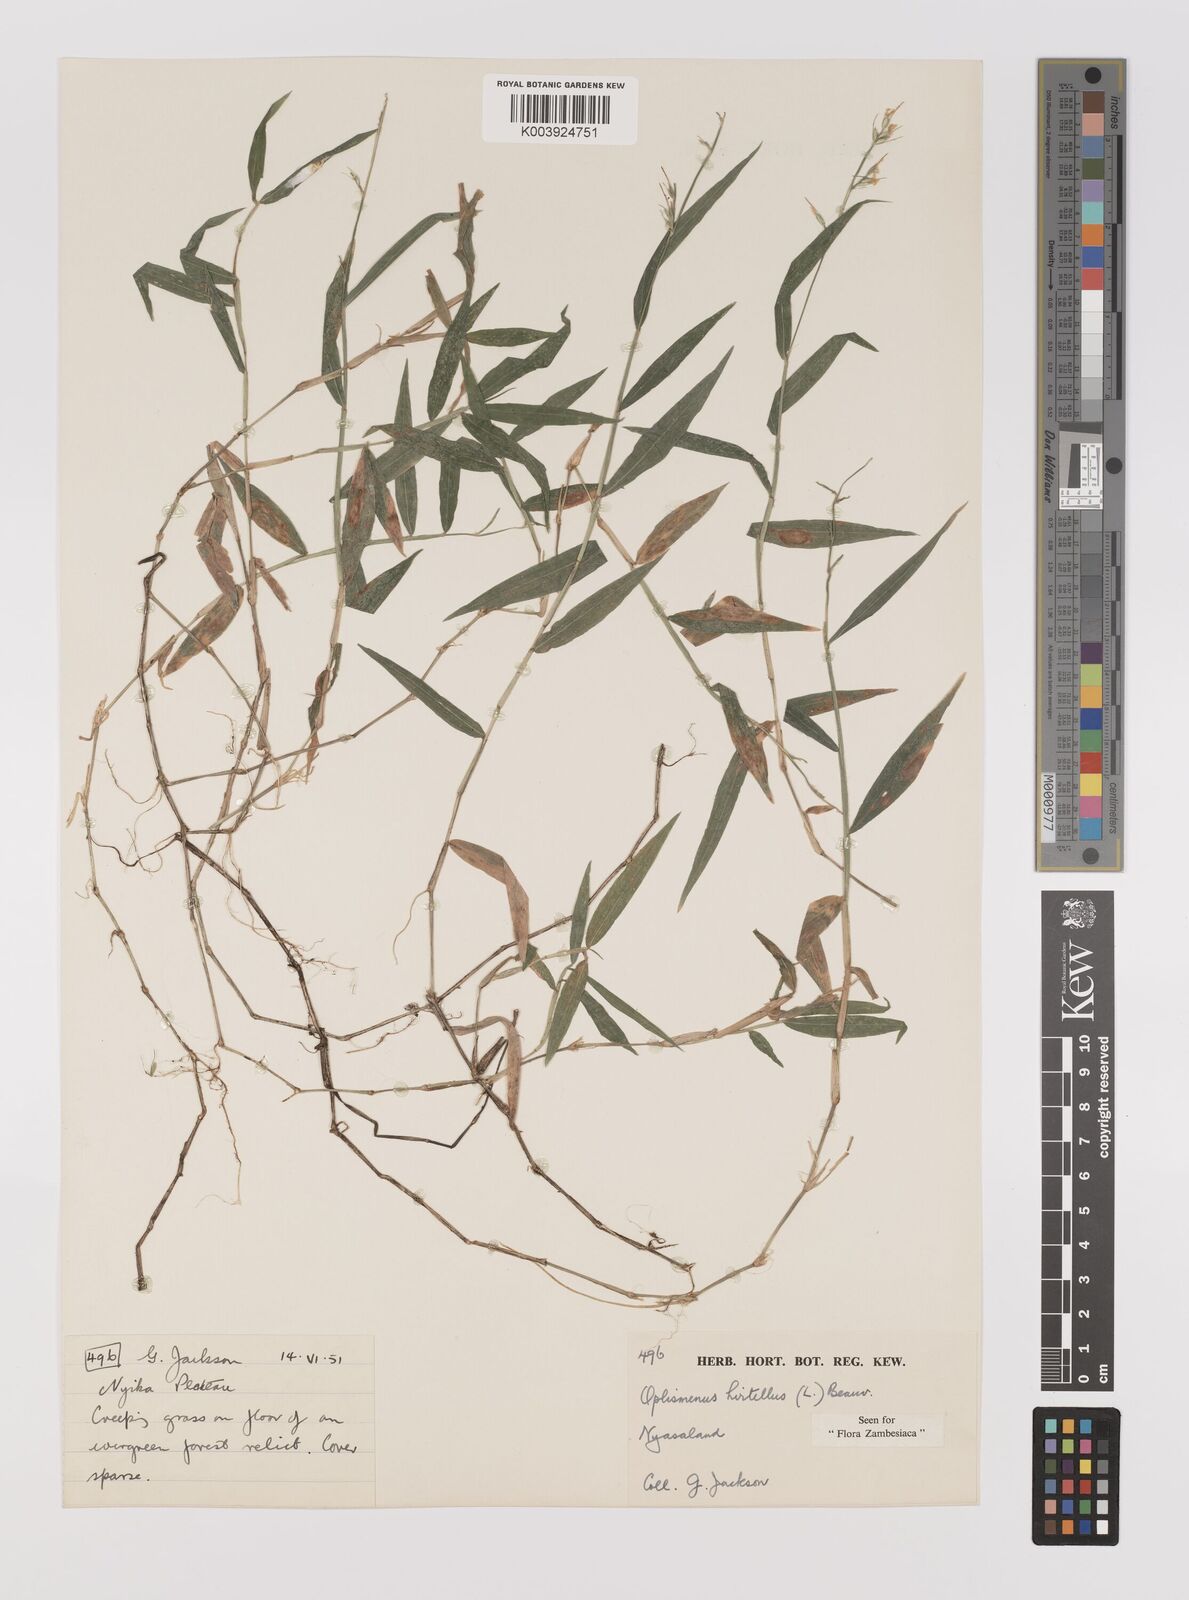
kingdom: Plantae
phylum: Tracheophyta
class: Liliopsida
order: Poales
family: Poaceae
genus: Oplismenus
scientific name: Oplismenus hirtellus
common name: Basketgrass
